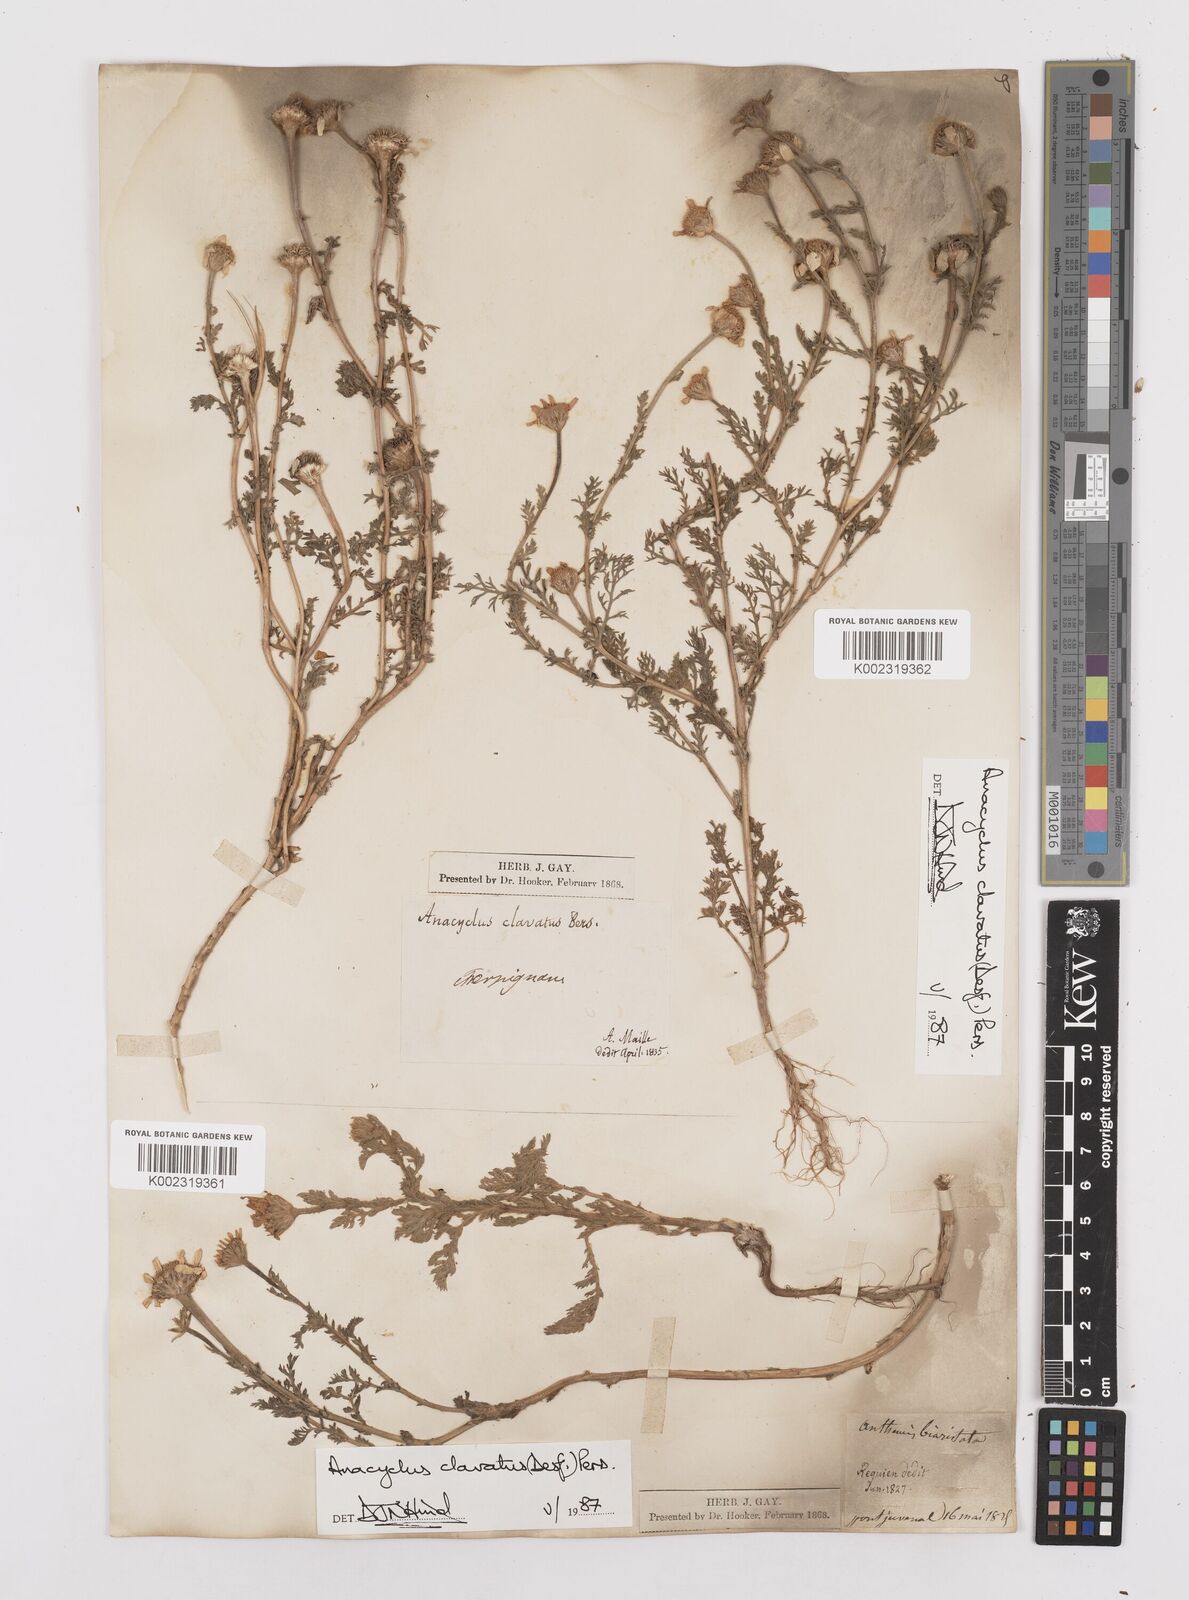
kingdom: Plantae
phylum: Tracheophyta
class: Magnoliopsida
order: Asterales
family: Asteraceae
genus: Anacyclus
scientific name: Anacyclus clavatus
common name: Whitebuttons
